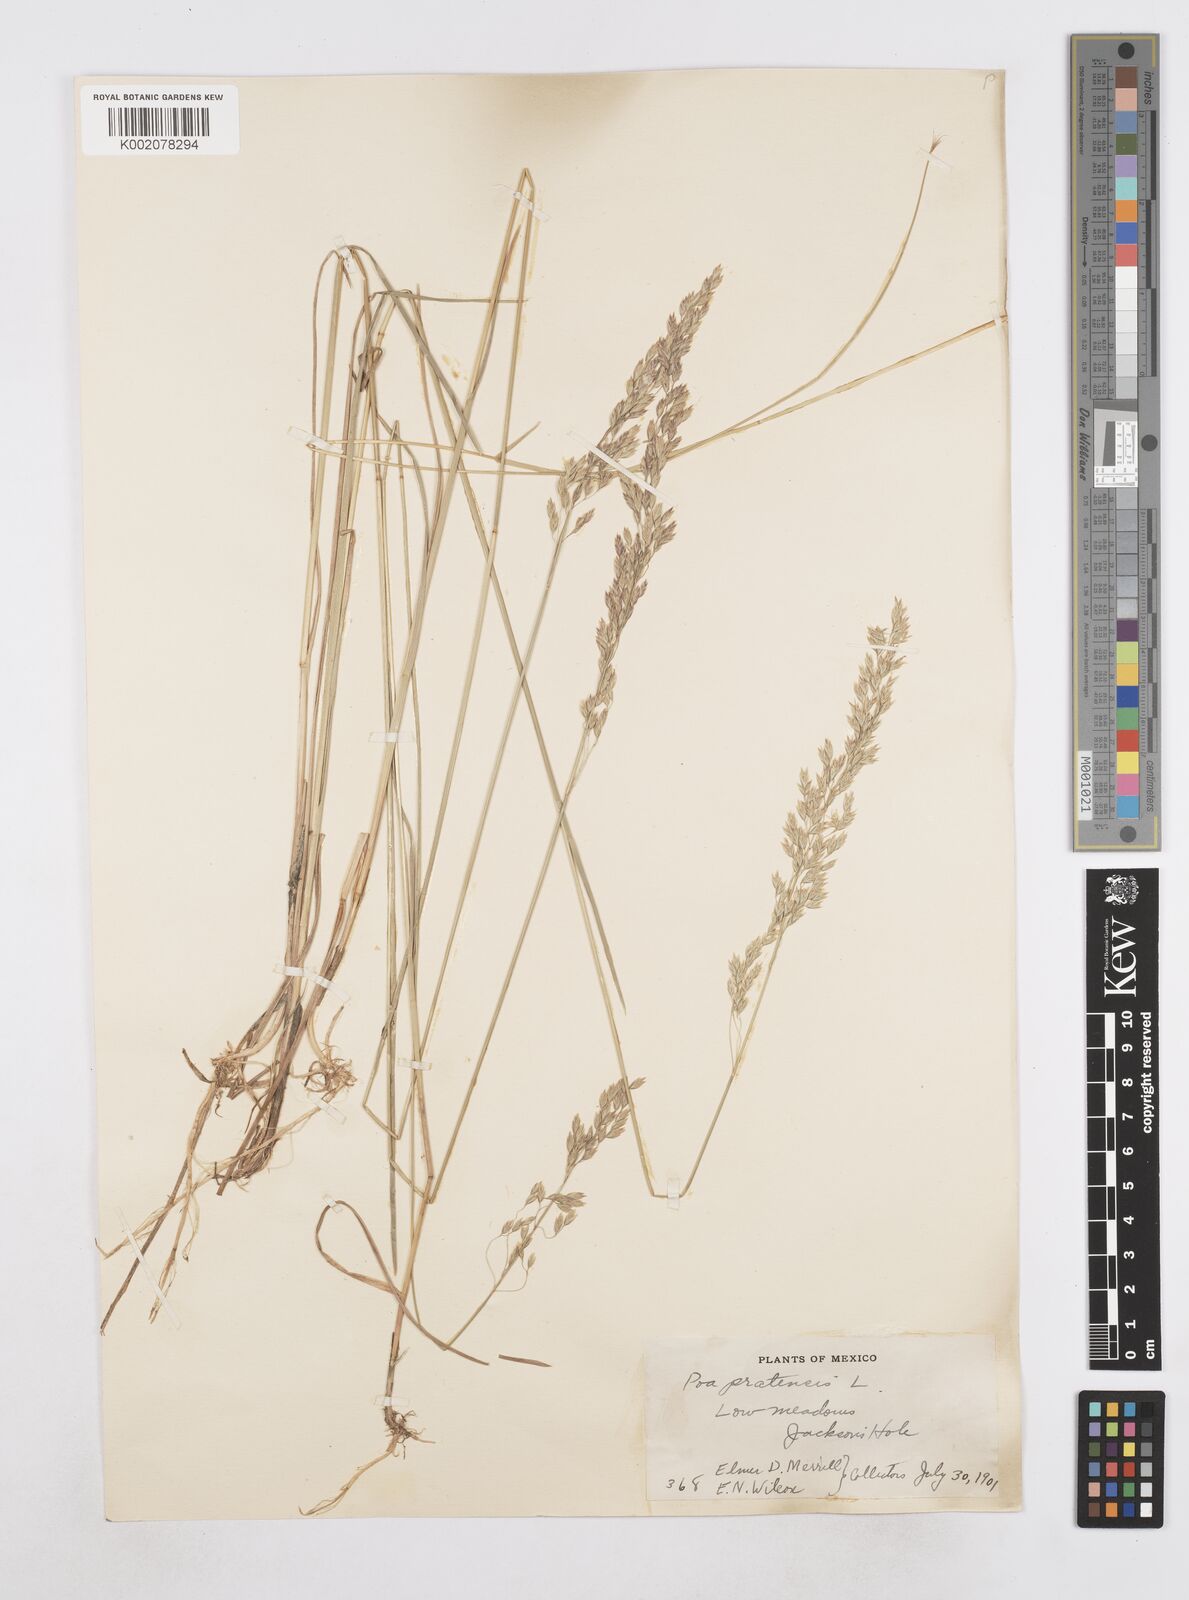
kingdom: Plantae
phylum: Tracheophyta
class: Liliopsida
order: Poales
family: Poaceae
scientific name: Poaceae
